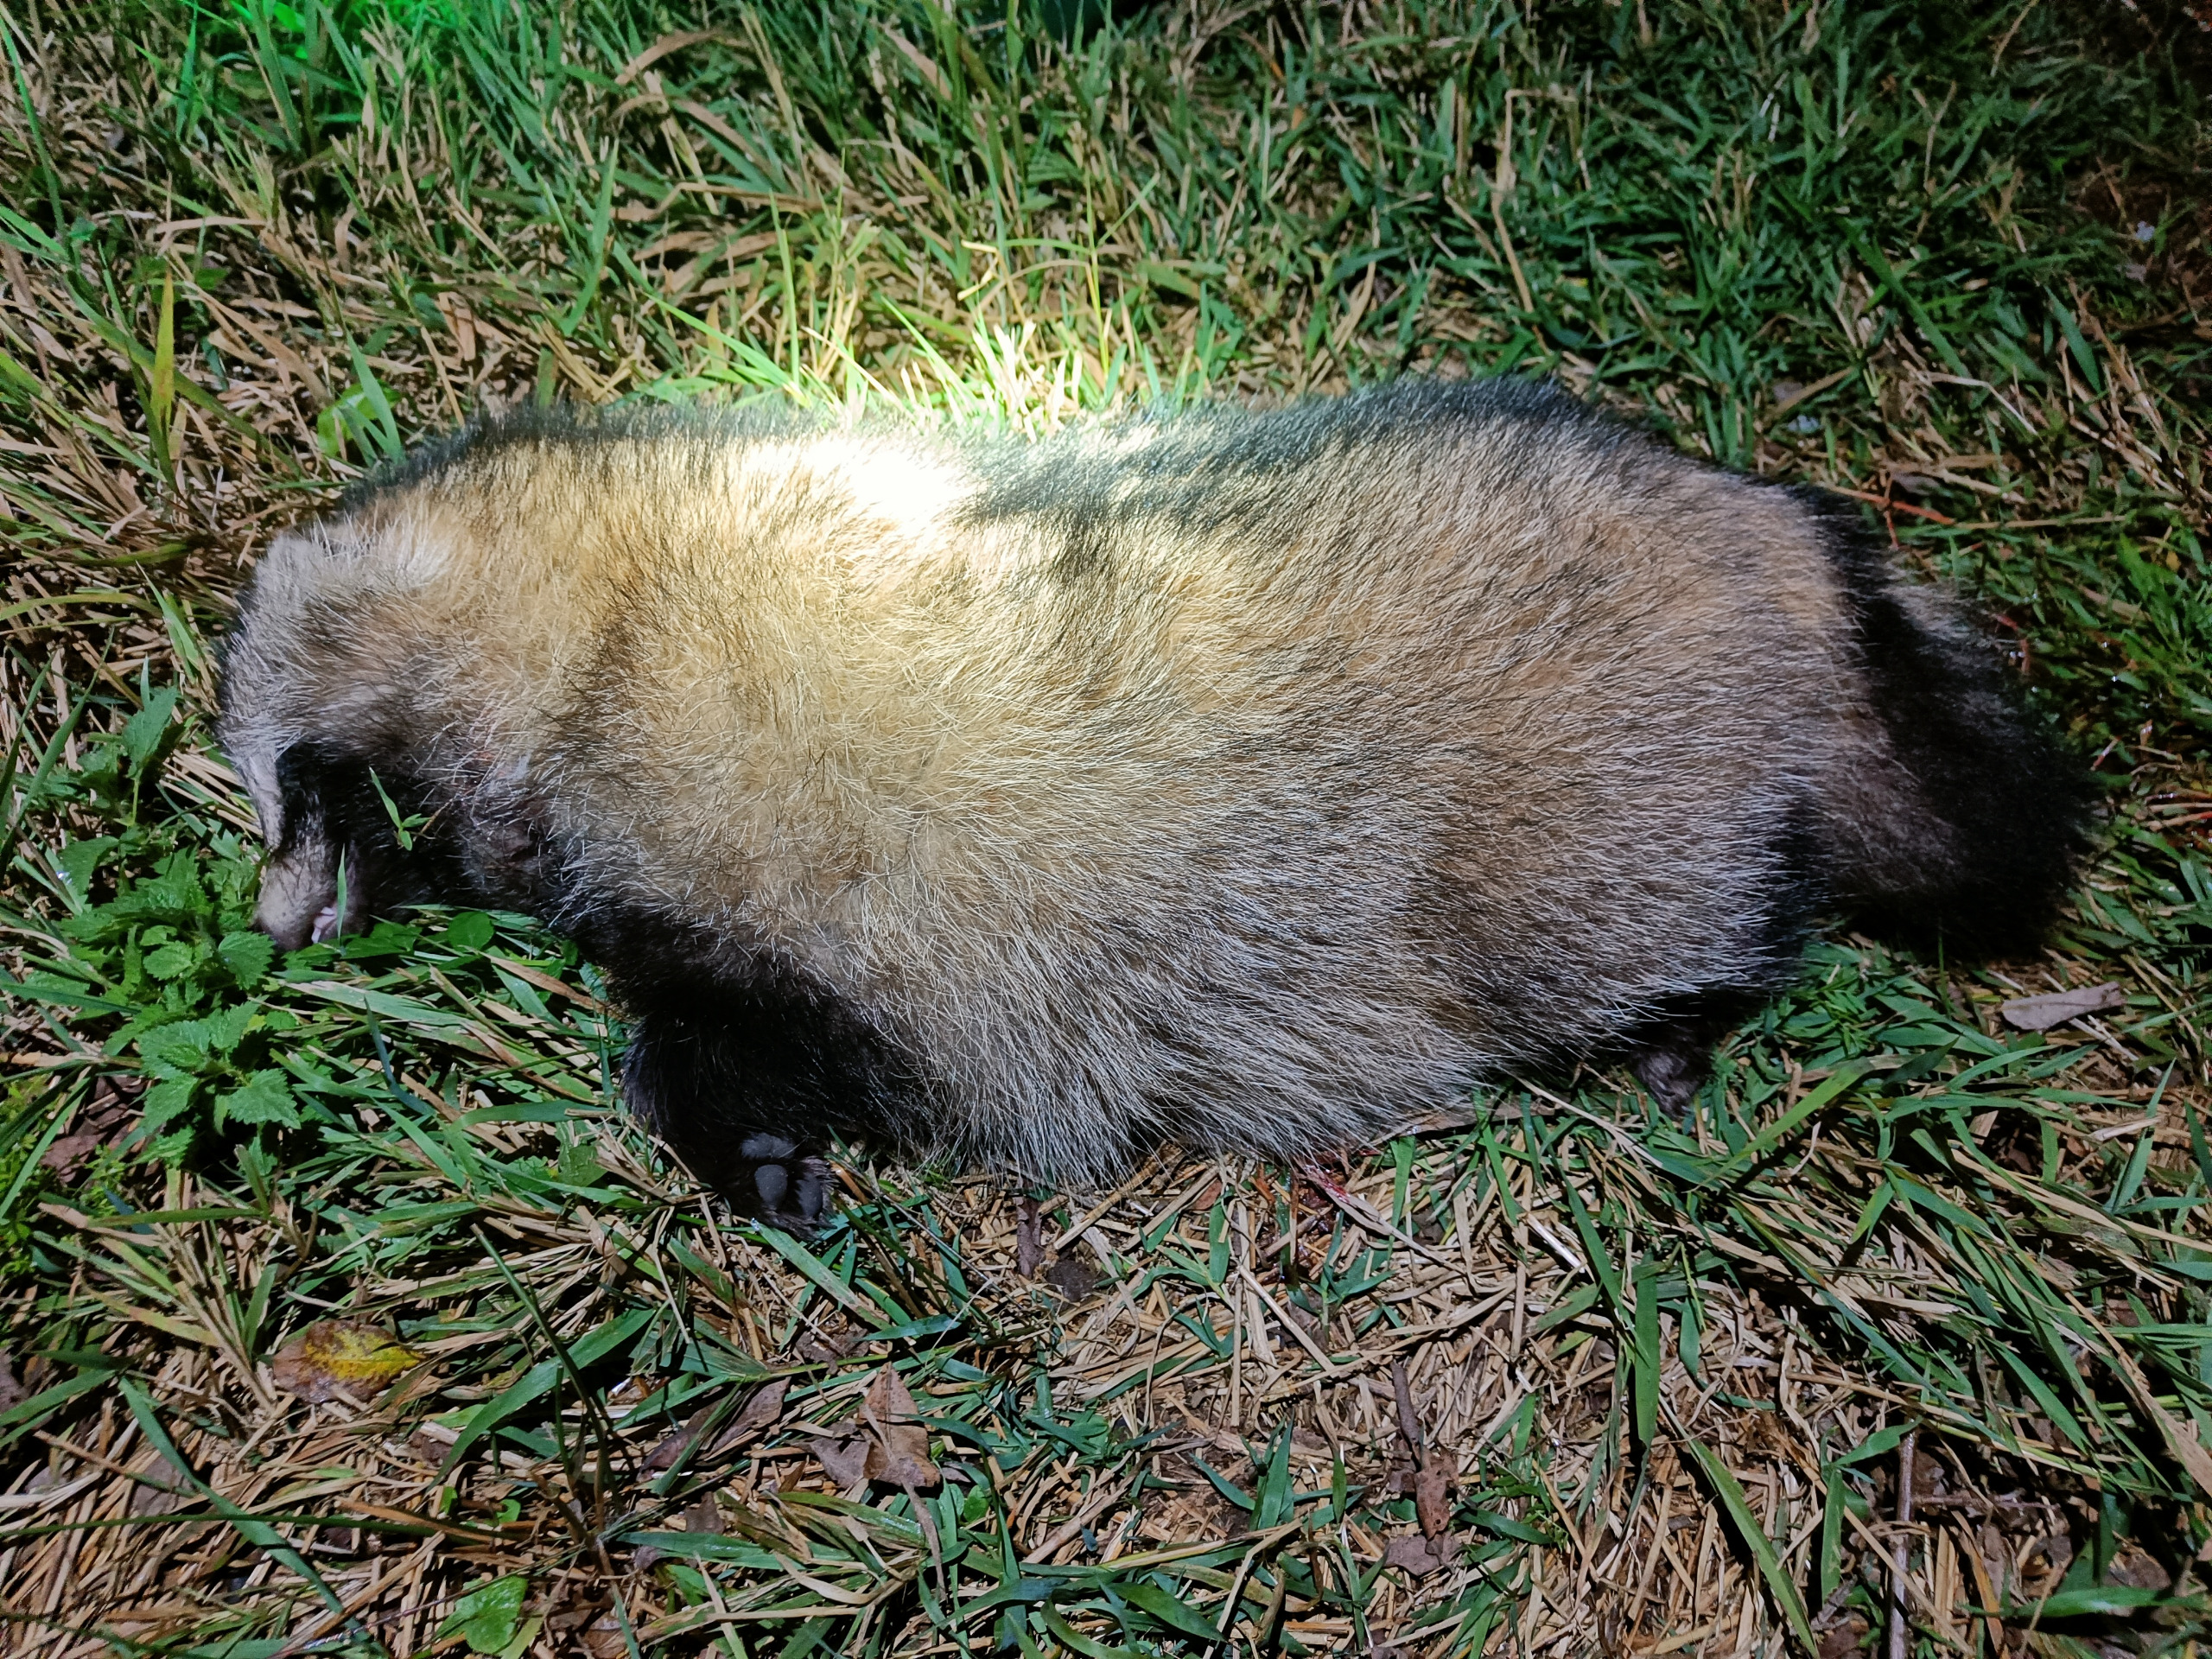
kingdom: Animalia
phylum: Chordata
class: Mammalia
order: Carnivora
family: Canidae
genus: Nyctereutes
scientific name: Nyctereutes procyonoides
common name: Mårhund
